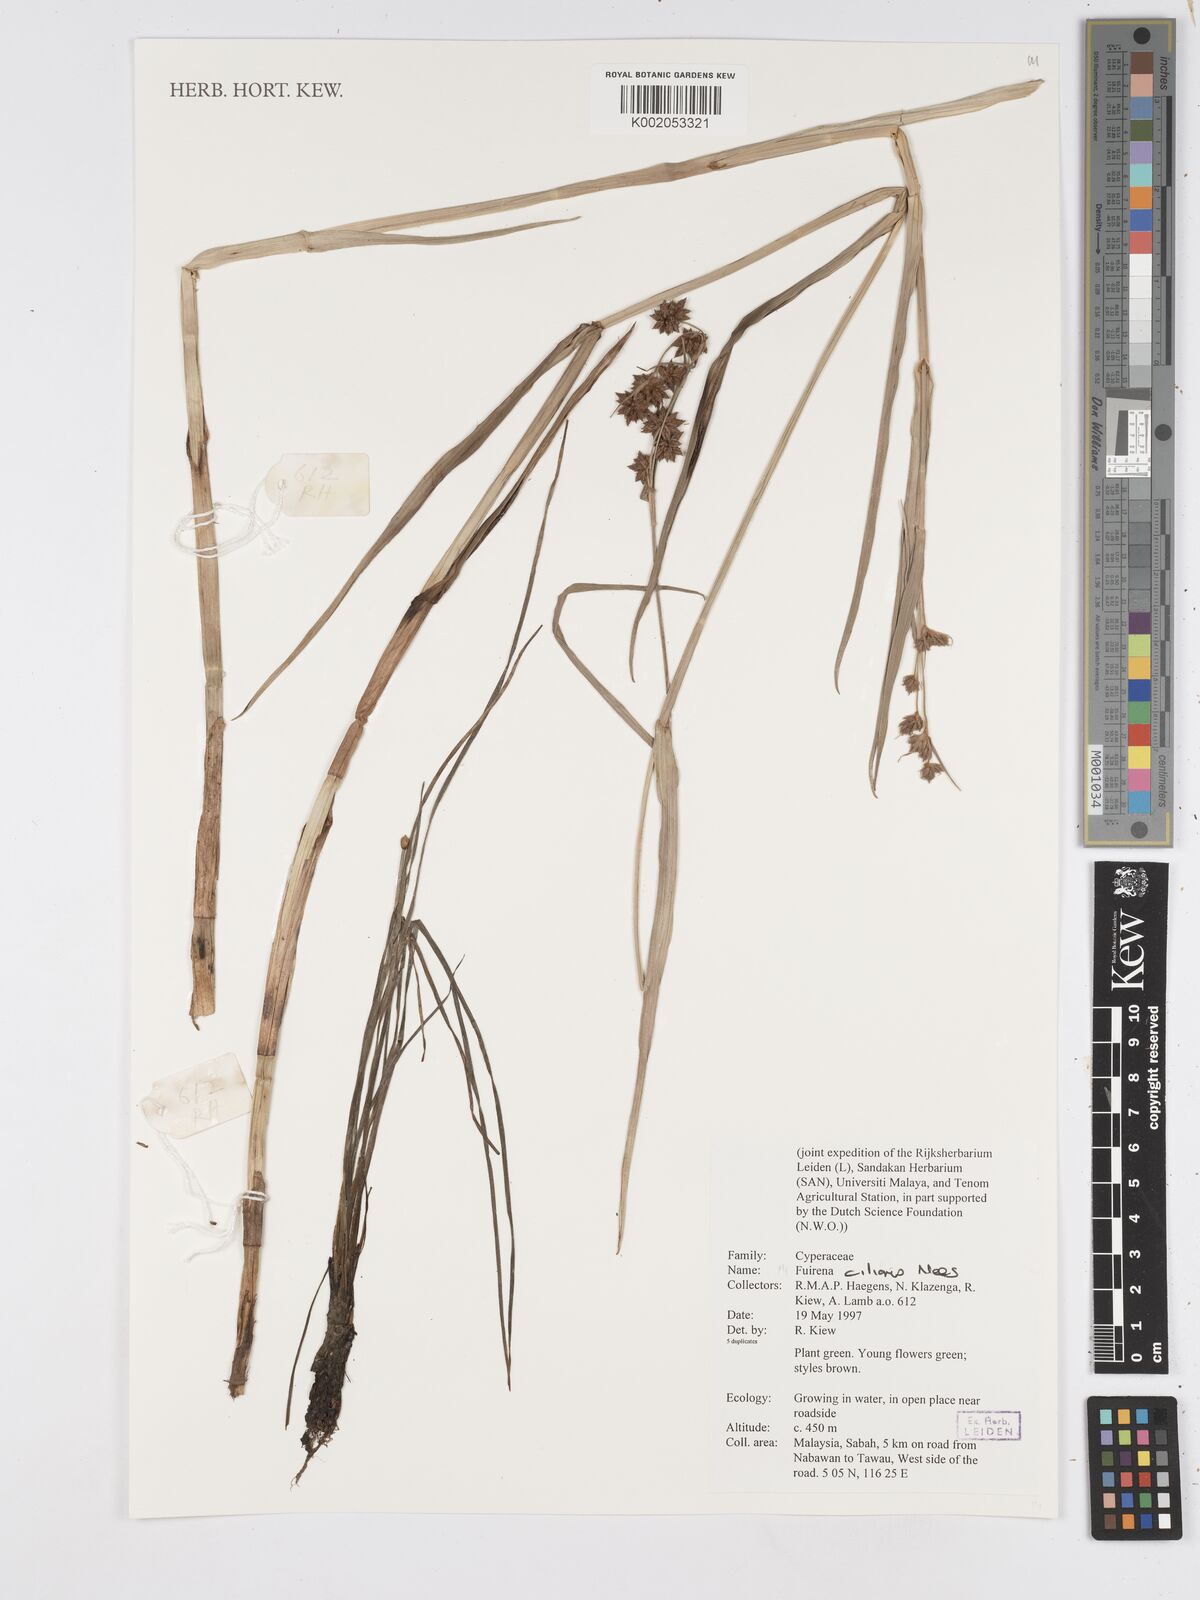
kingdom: Plantae
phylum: Tracheophyta
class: Liliopsida
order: Poales
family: Cyperaceae
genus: Fuirena
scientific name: Fuirena ciliaris
